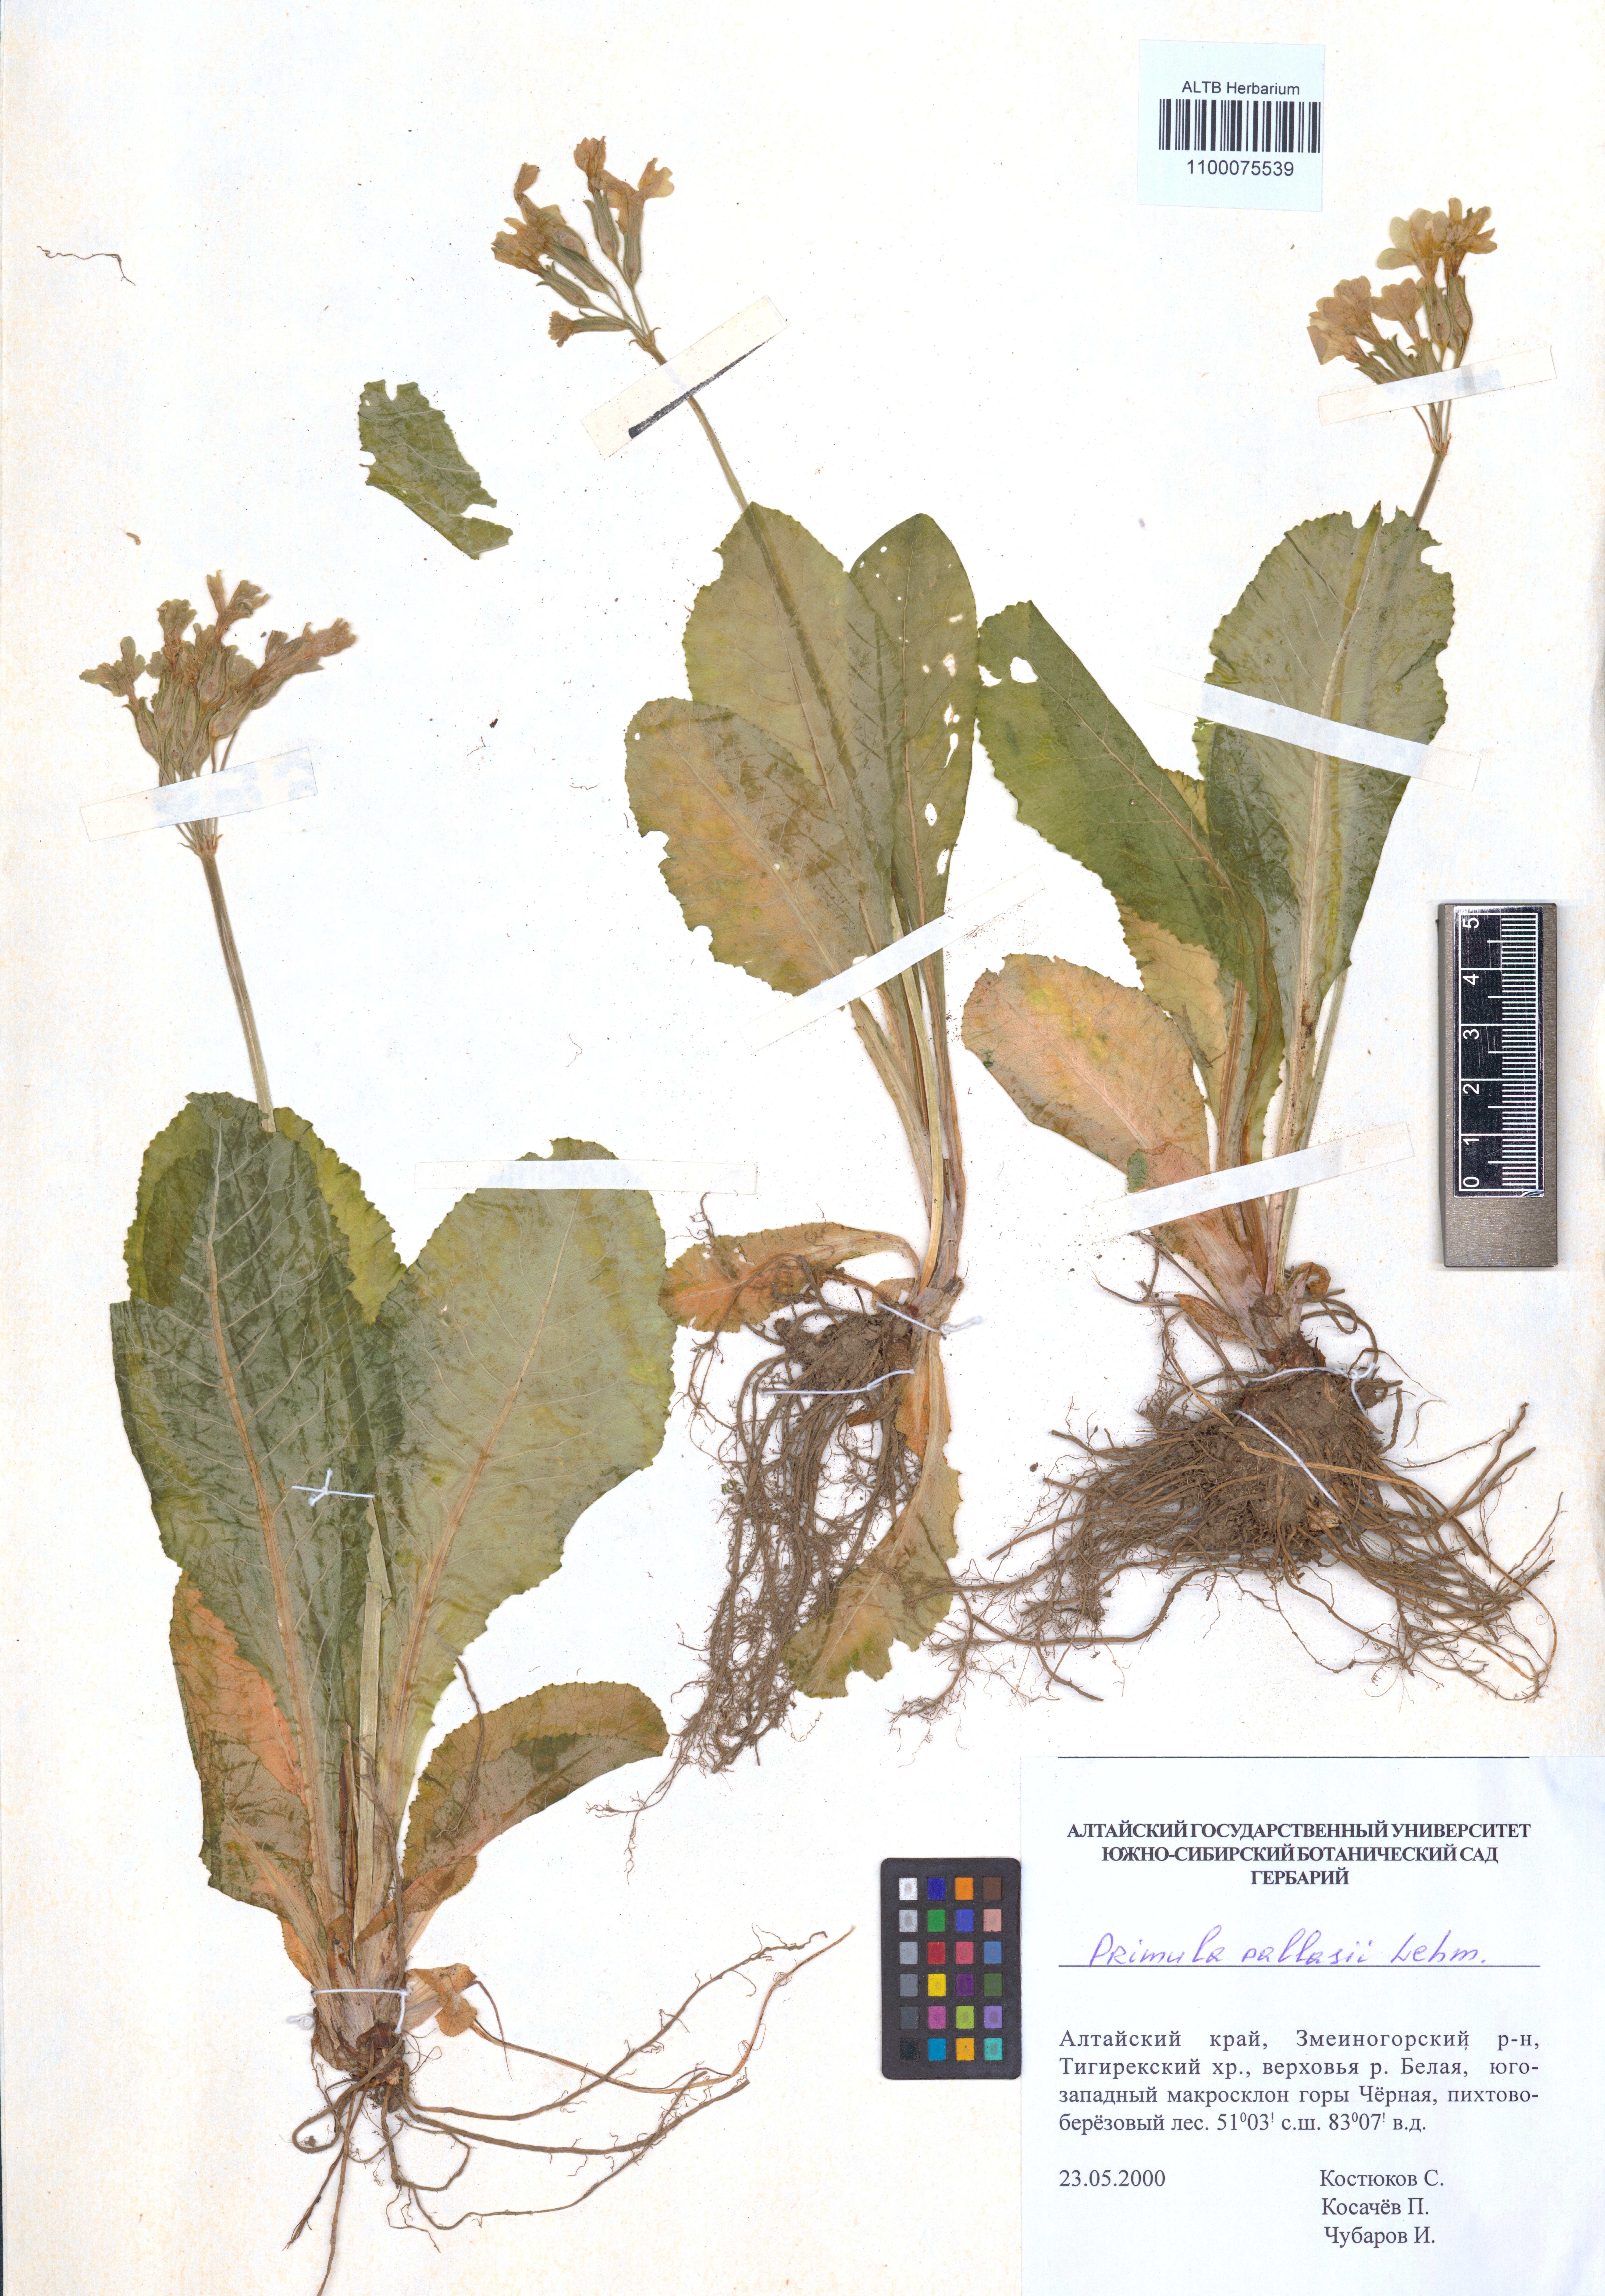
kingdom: Plantae
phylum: Tracheophyta
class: Magnoliopsida
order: Ericales
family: Primulaceae
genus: Primula
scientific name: Primula elatior
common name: Oxlip
